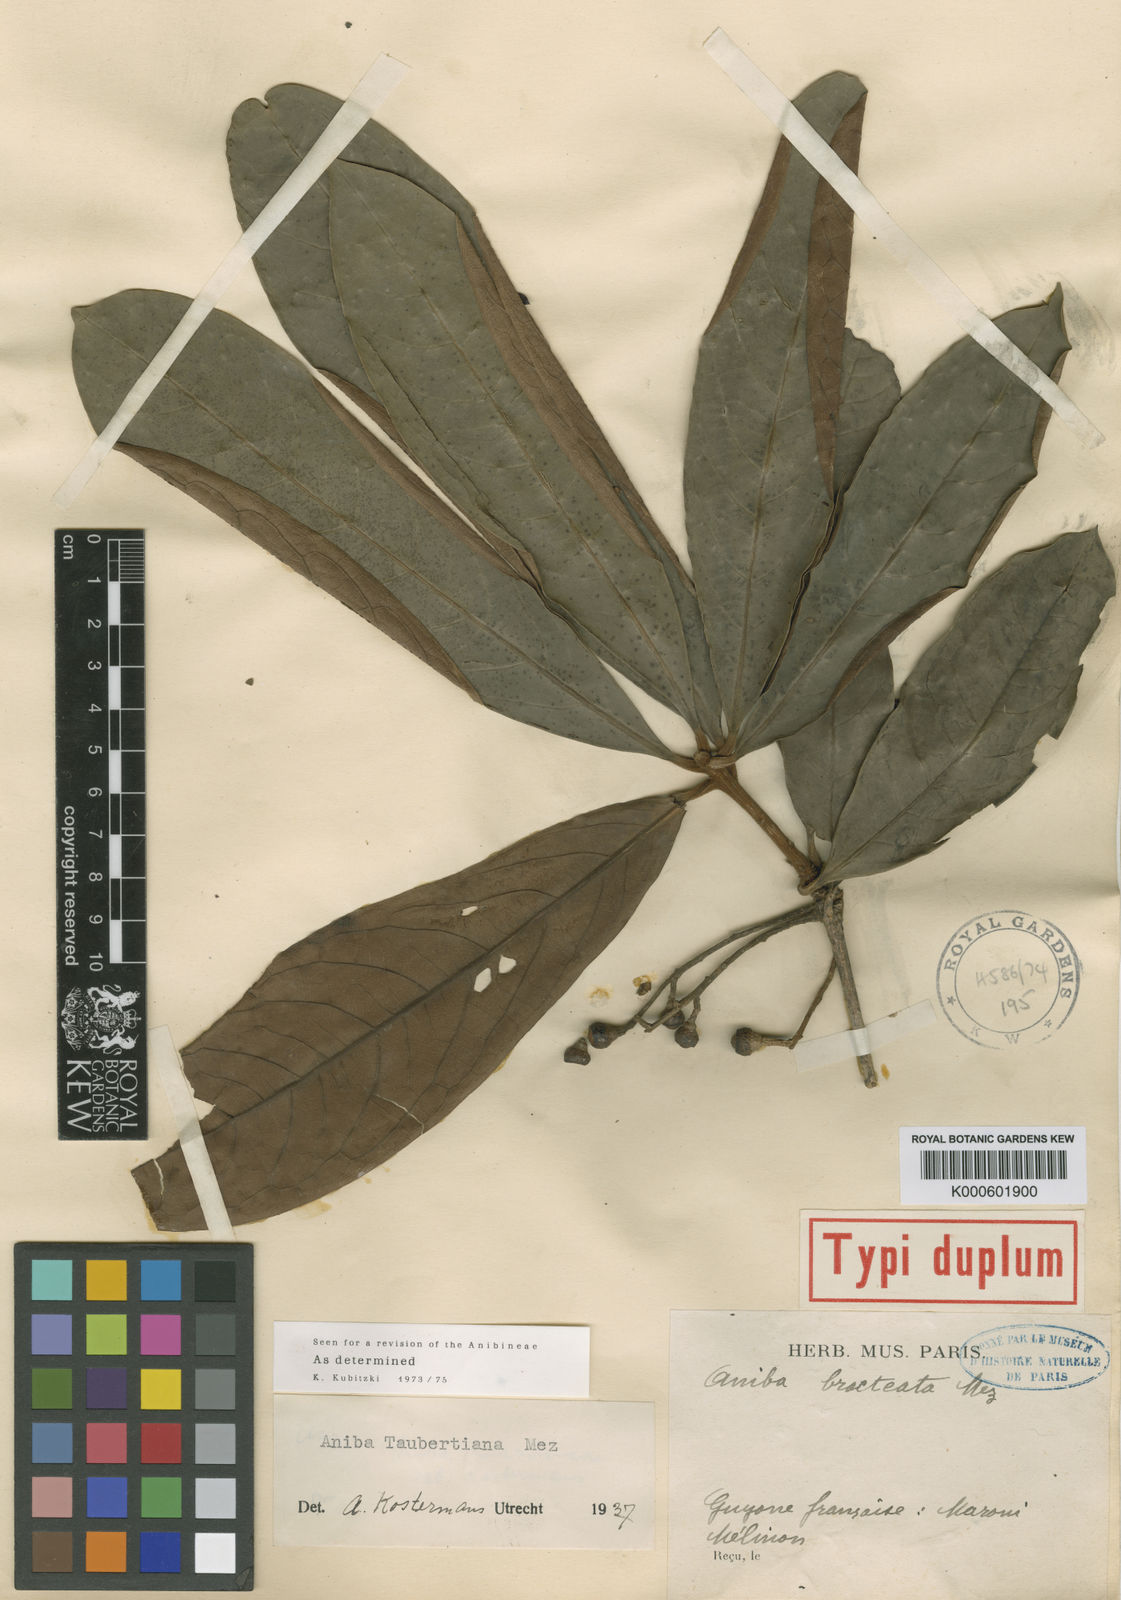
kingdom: Plantae
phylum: Tracheophyta
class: Magnoliopsida
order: Laurales
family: Lauraceae
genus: Aniba
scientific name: Aniba taubertiana
